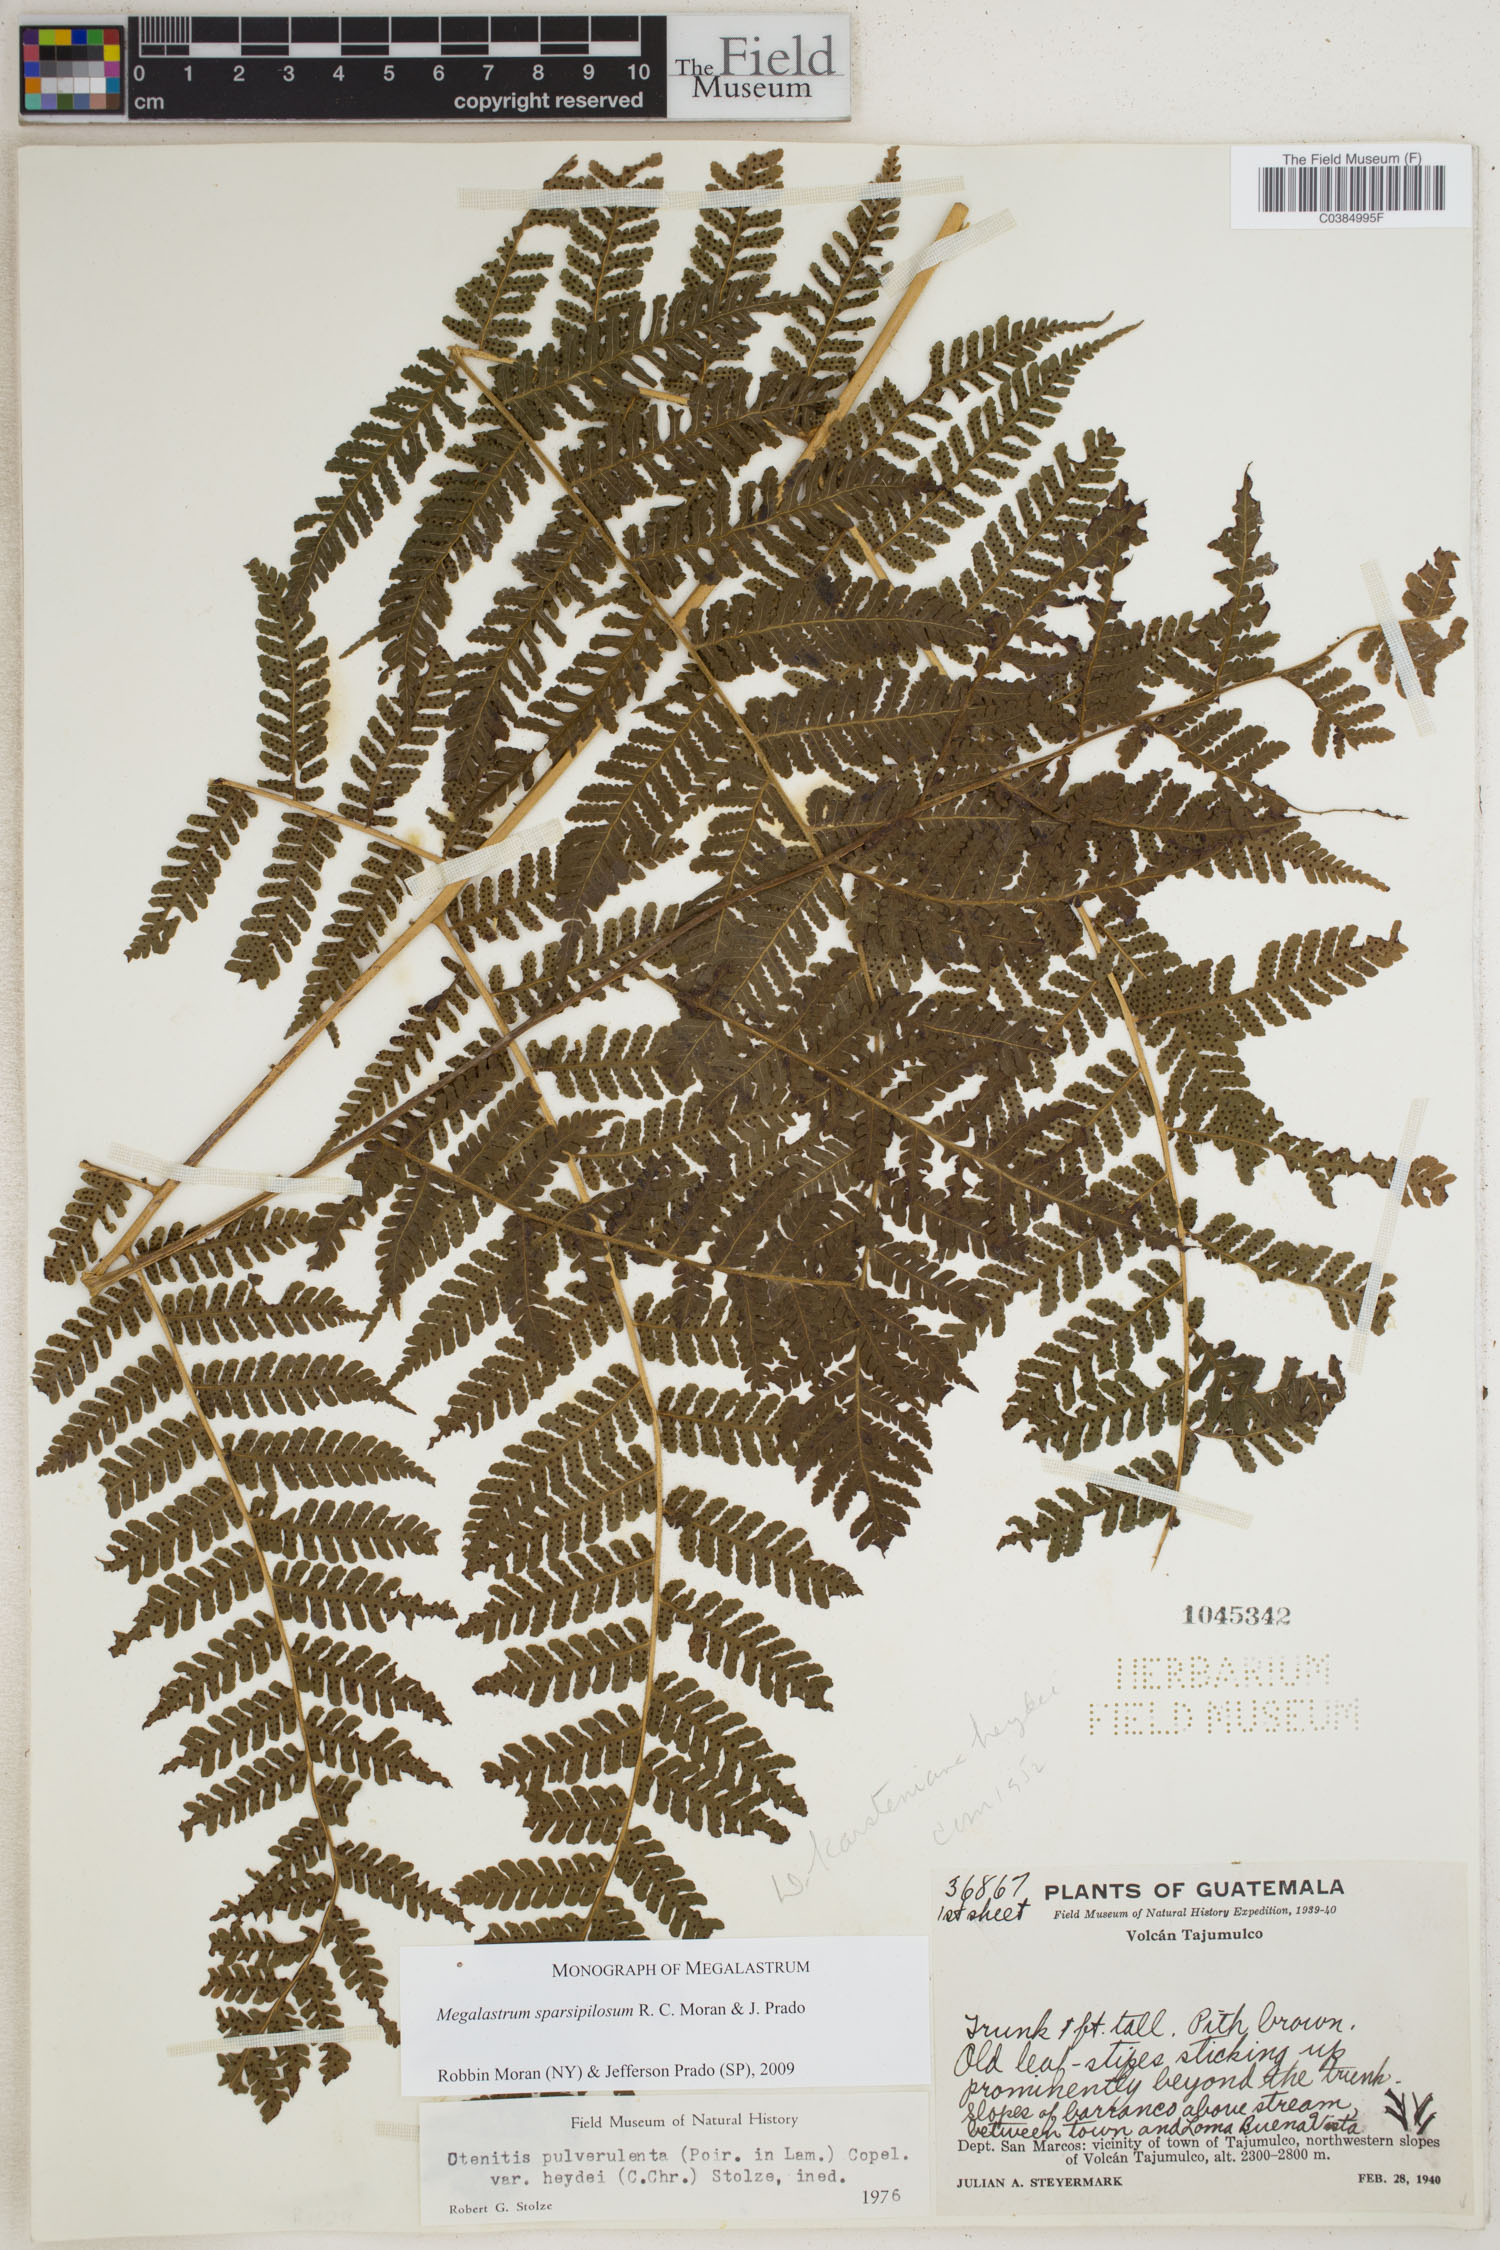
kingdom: Plantae
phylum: Tracheophyta
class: Polypodiopsida
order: Polypodiales
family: Dryopteridaceae
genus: Megalastrum
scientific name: Megalastrum sparsipilosum
